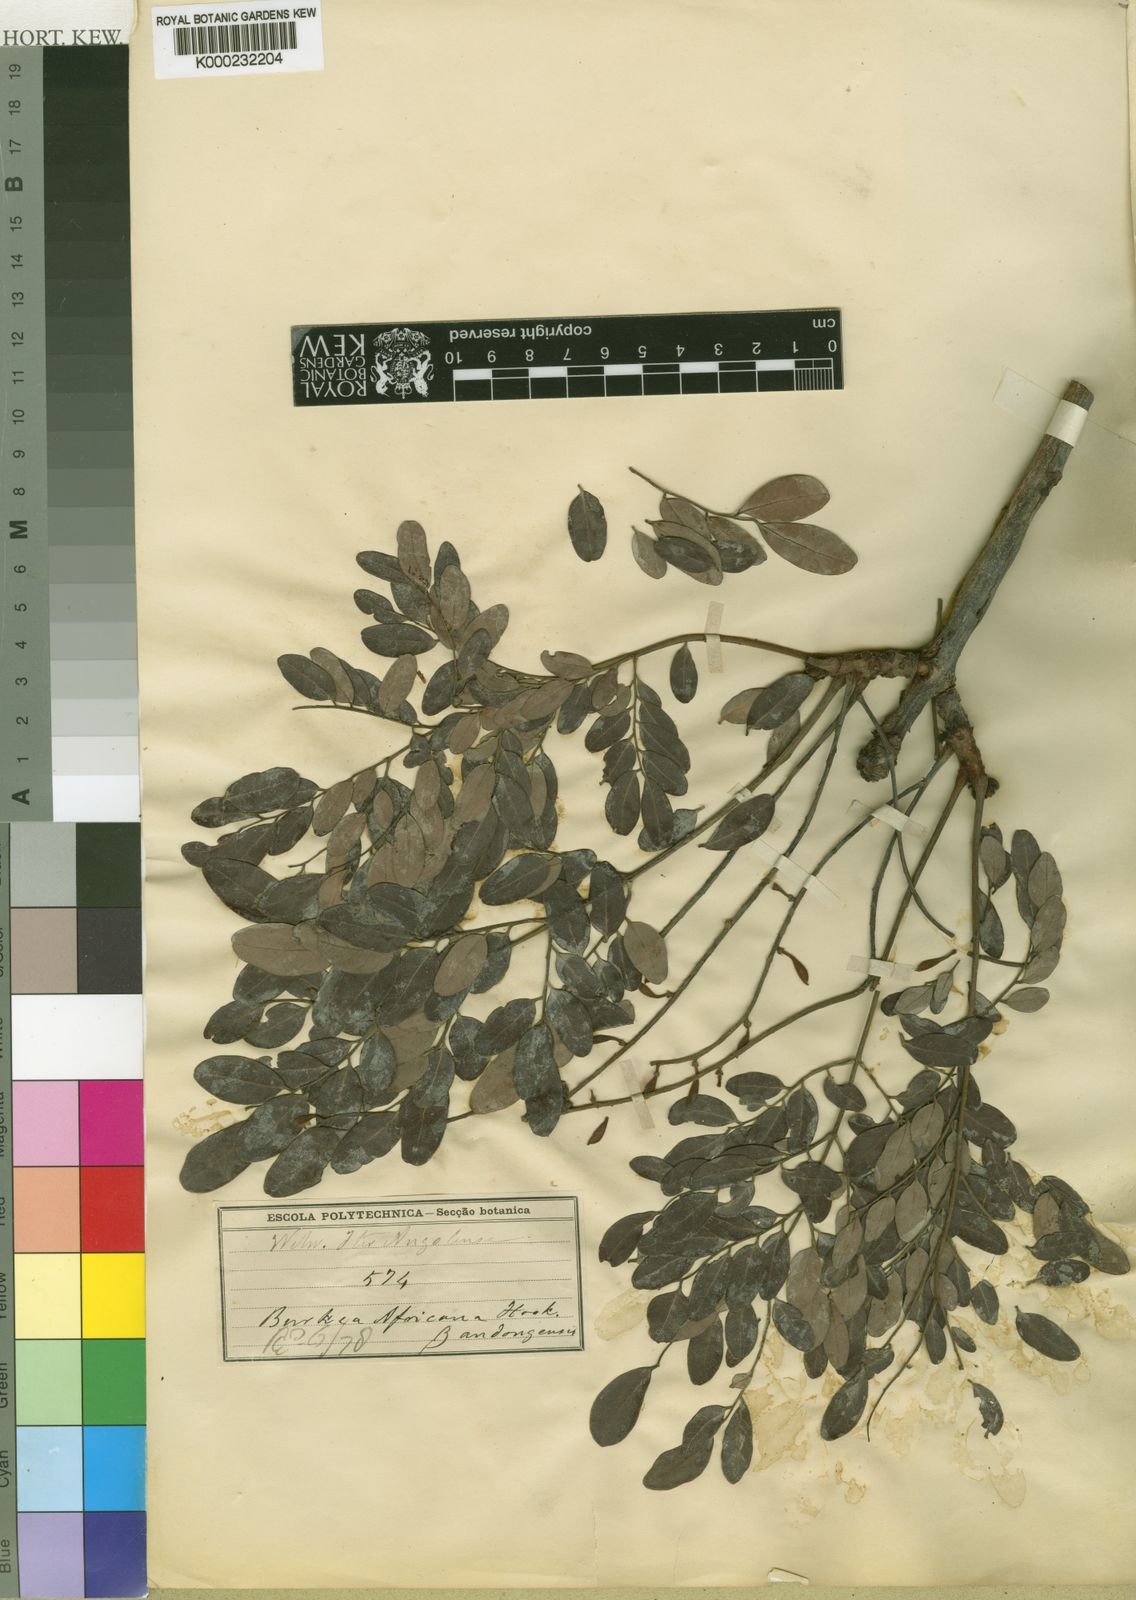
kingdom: Plantae
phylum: Tracheophyta
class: Magnoliopsida
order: Fabales
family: Fabaceae
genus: Burkea
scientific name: Burkea africana
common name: Mkalati tree
